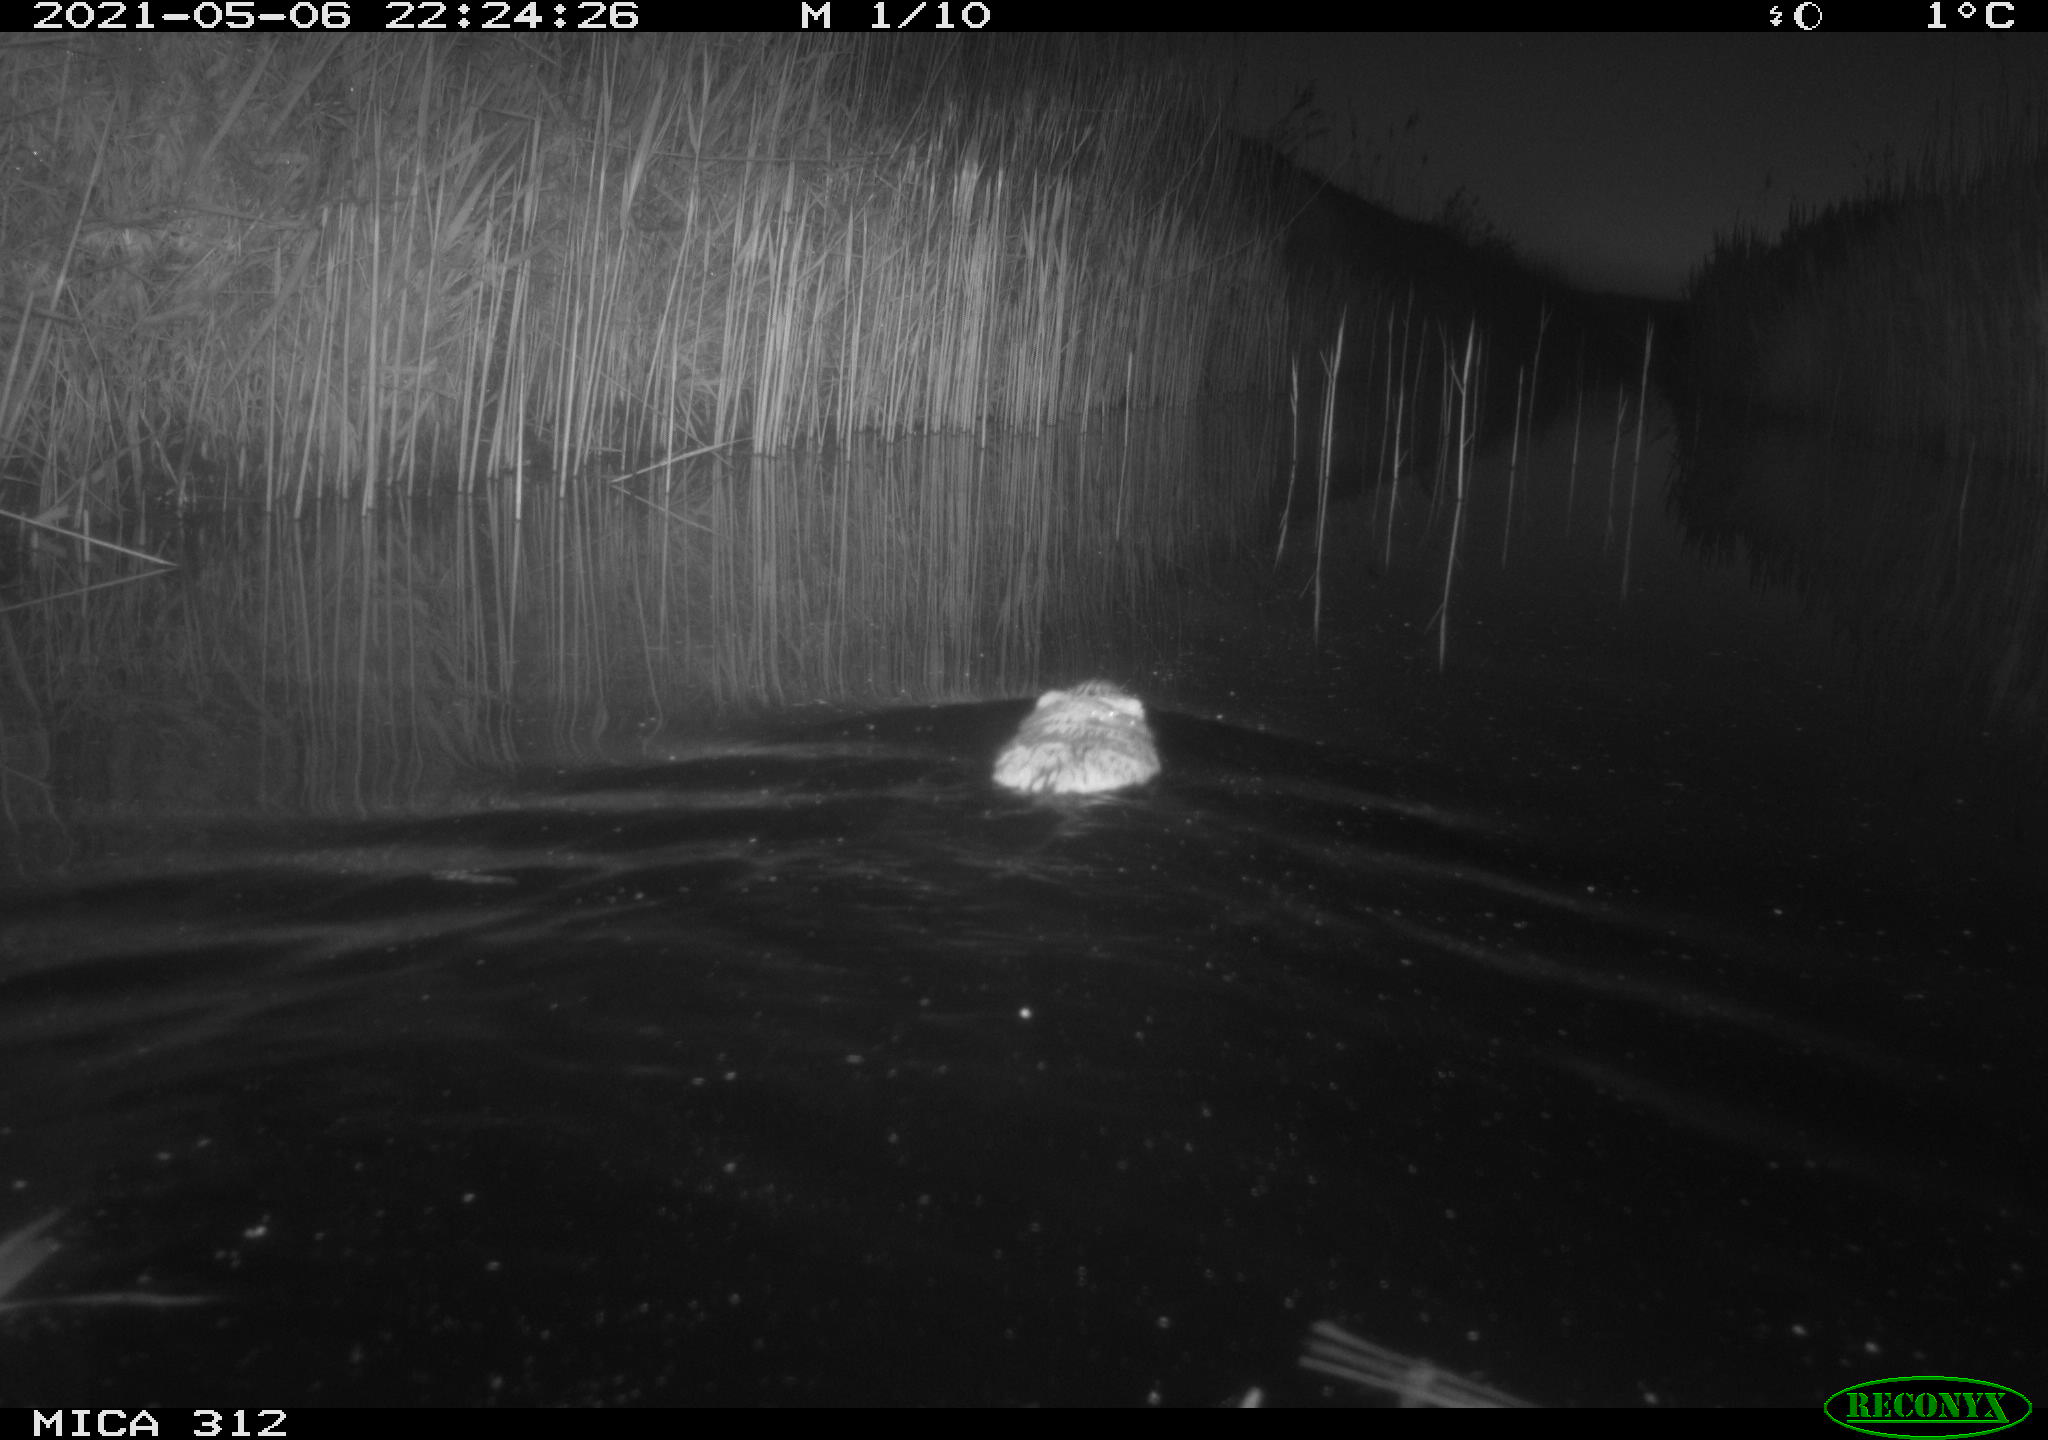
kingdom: Animalia
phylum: Chordata
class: Mammalia
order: Rodentia
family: Cricetidae
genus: Ondatra
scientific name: Ondatra zibethicus
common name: Muskrat
